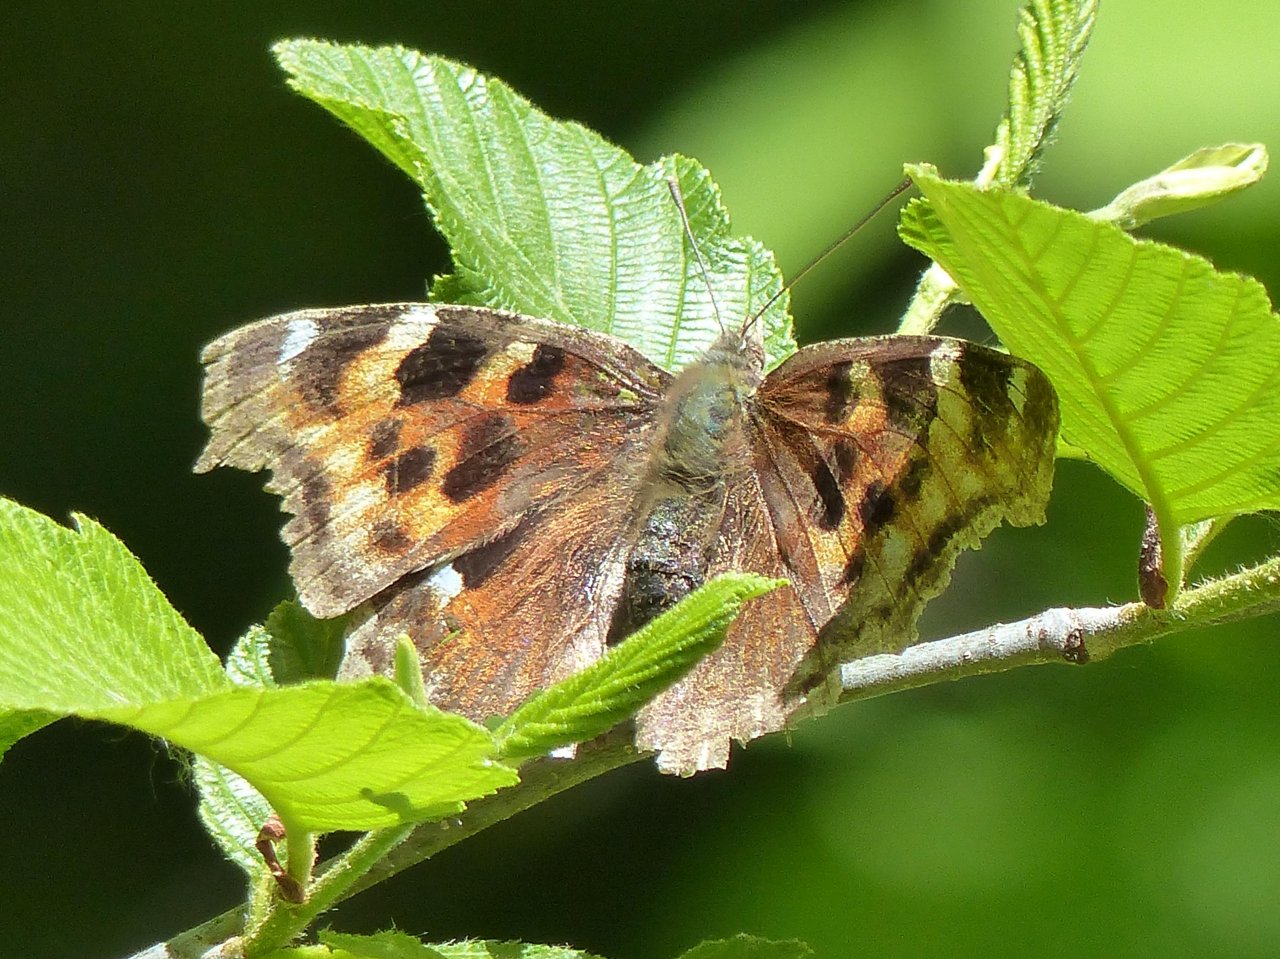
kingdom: Animalia
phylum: Arthropoda
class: Insecta
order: Lepidoptera
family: Nymphalidae
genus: Polygonia
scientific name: Polygonia vaualbum
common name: Compton Tortoiseshell
